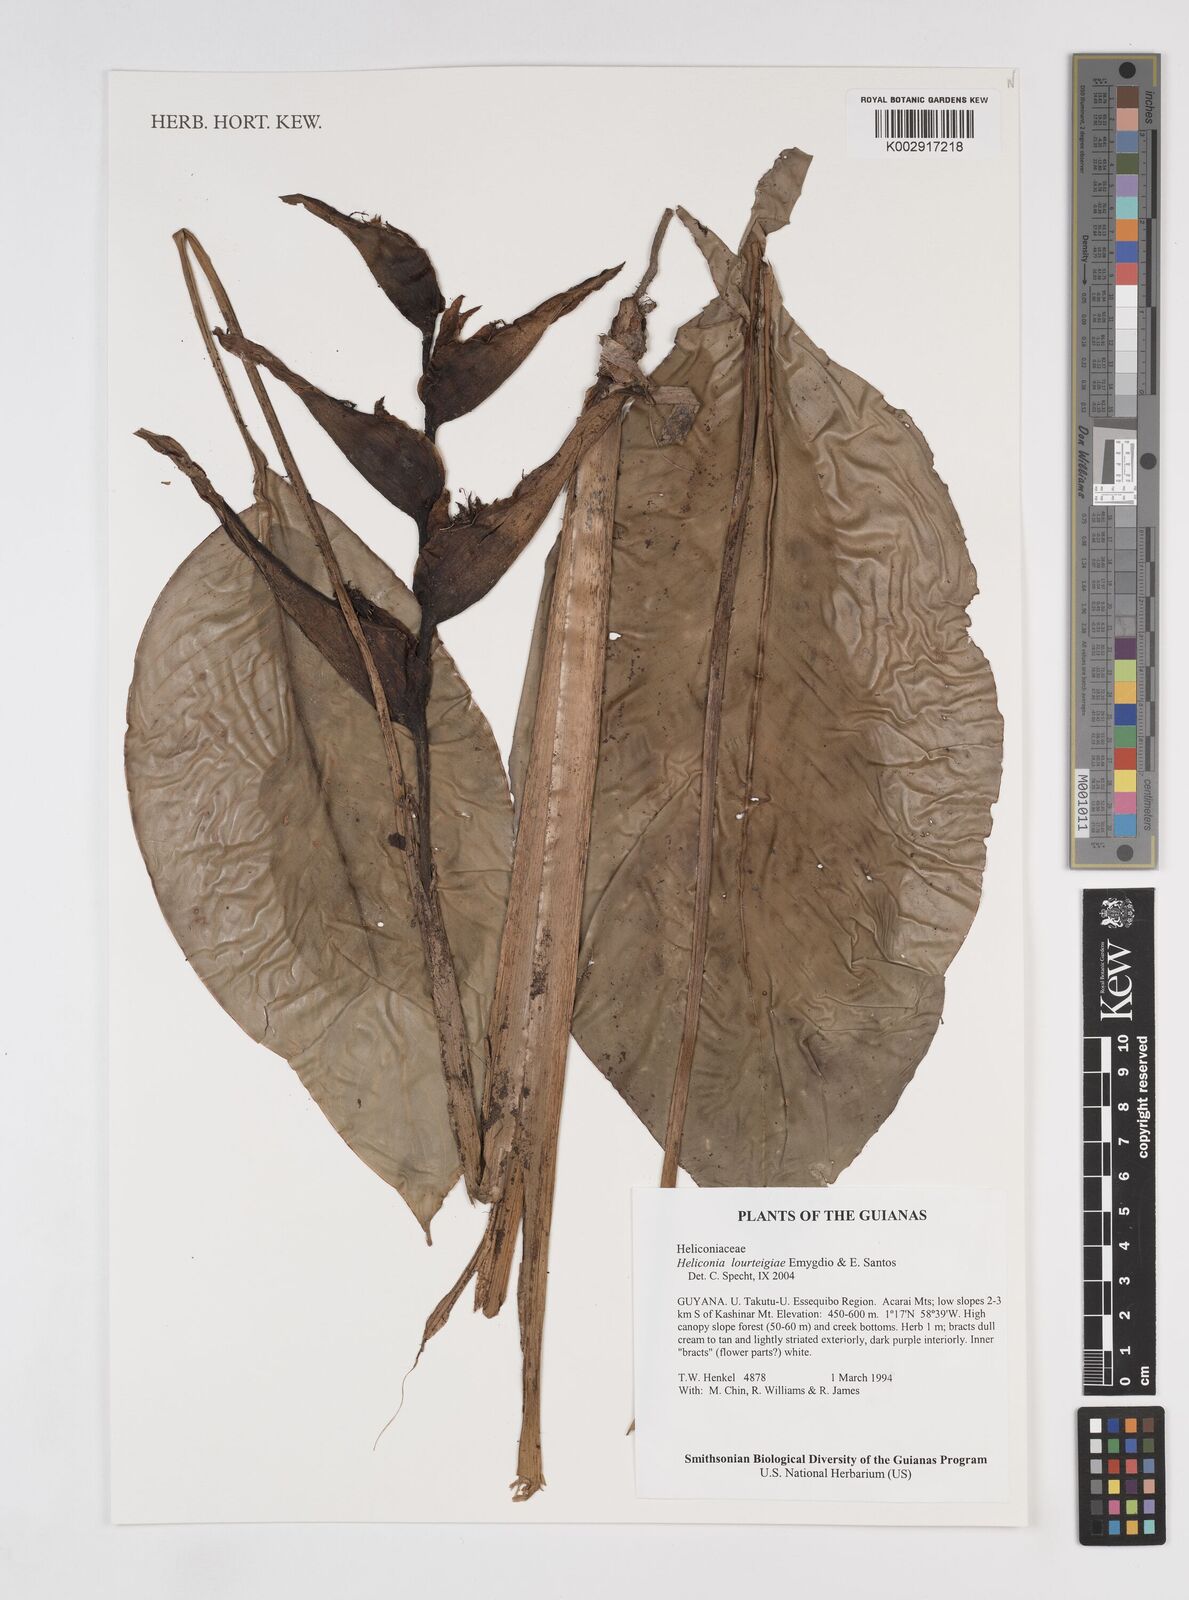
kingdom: Plantae
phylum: Tracheophyta
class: Liliopsida
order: Zingiberales
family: Heliconiaceae
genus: Heliconia
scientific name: Heliconia lourteigiae
